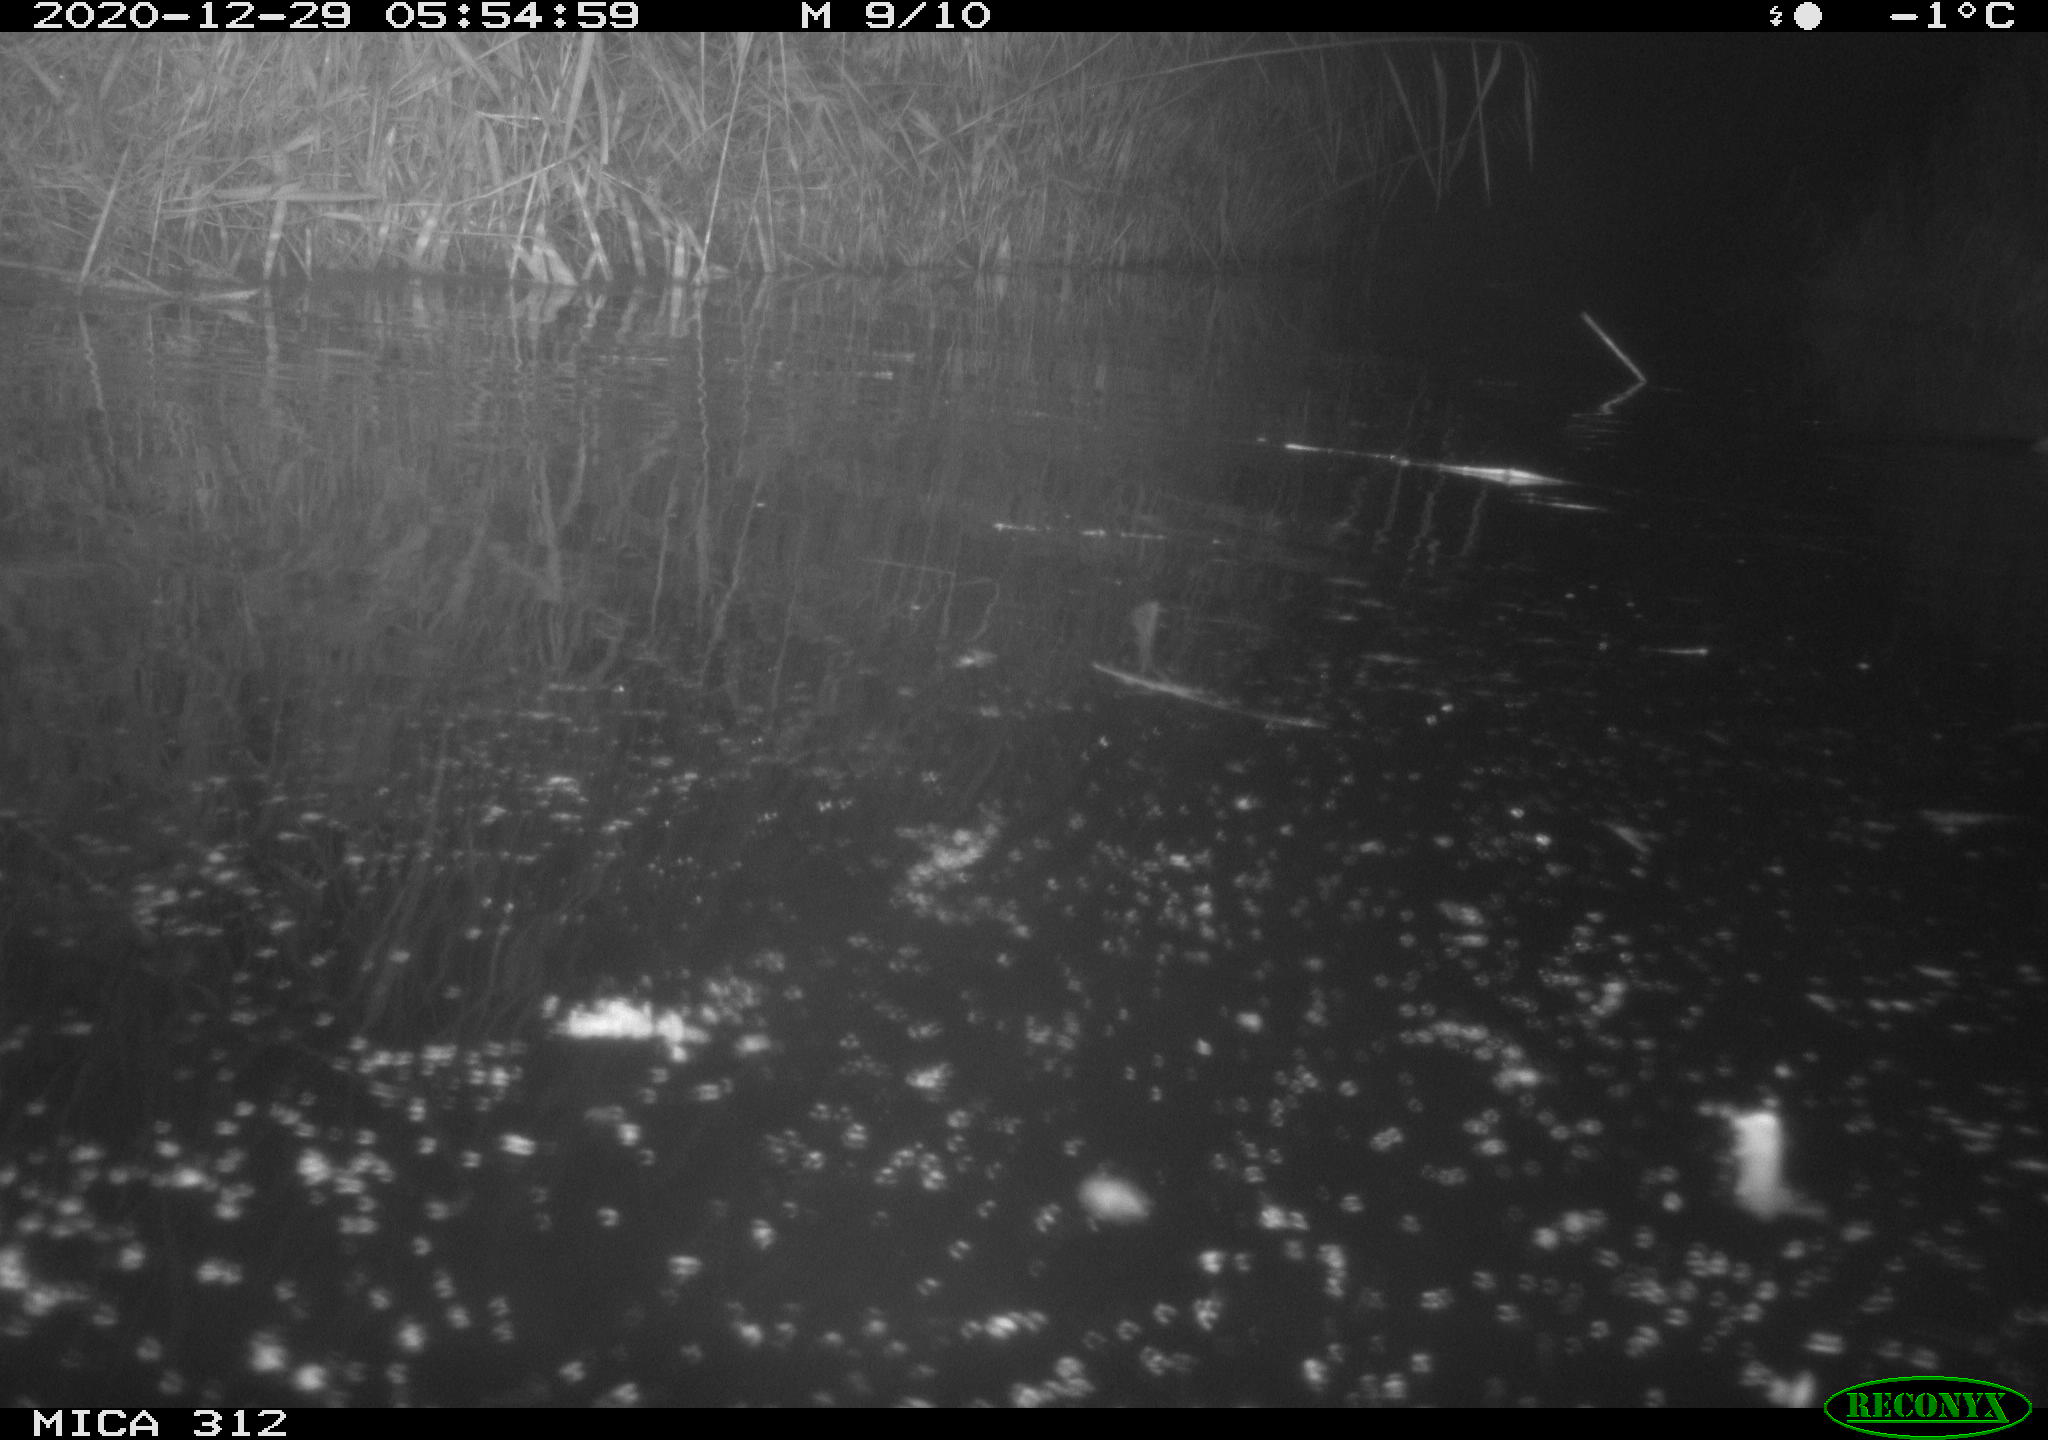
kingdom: Animalia
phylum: Chordata
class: Mammalia
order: Rodentia
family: Muridae
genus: Rattus
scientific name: Rattus norvegicus
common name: Brown rat
